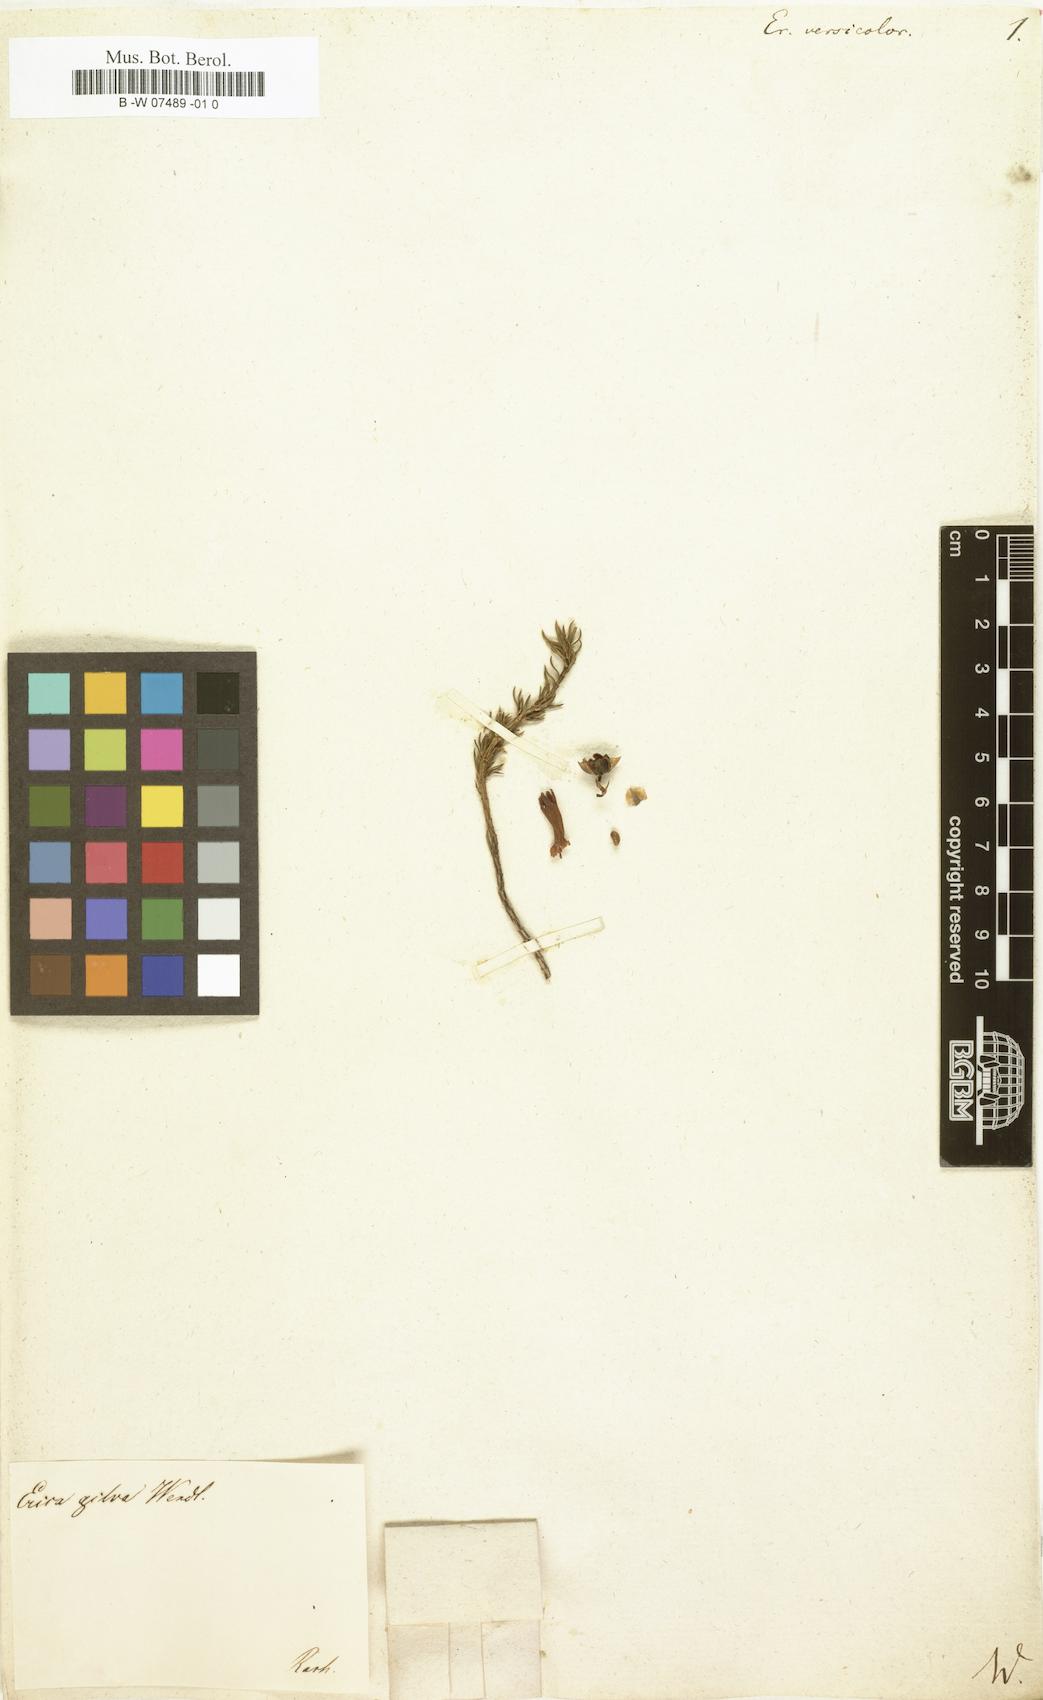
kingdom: Plantae
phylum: Tracheophyta
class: Magnoliopsida
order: Ericales
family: Ericaceae
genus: Erica
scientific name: Erica versicolor
